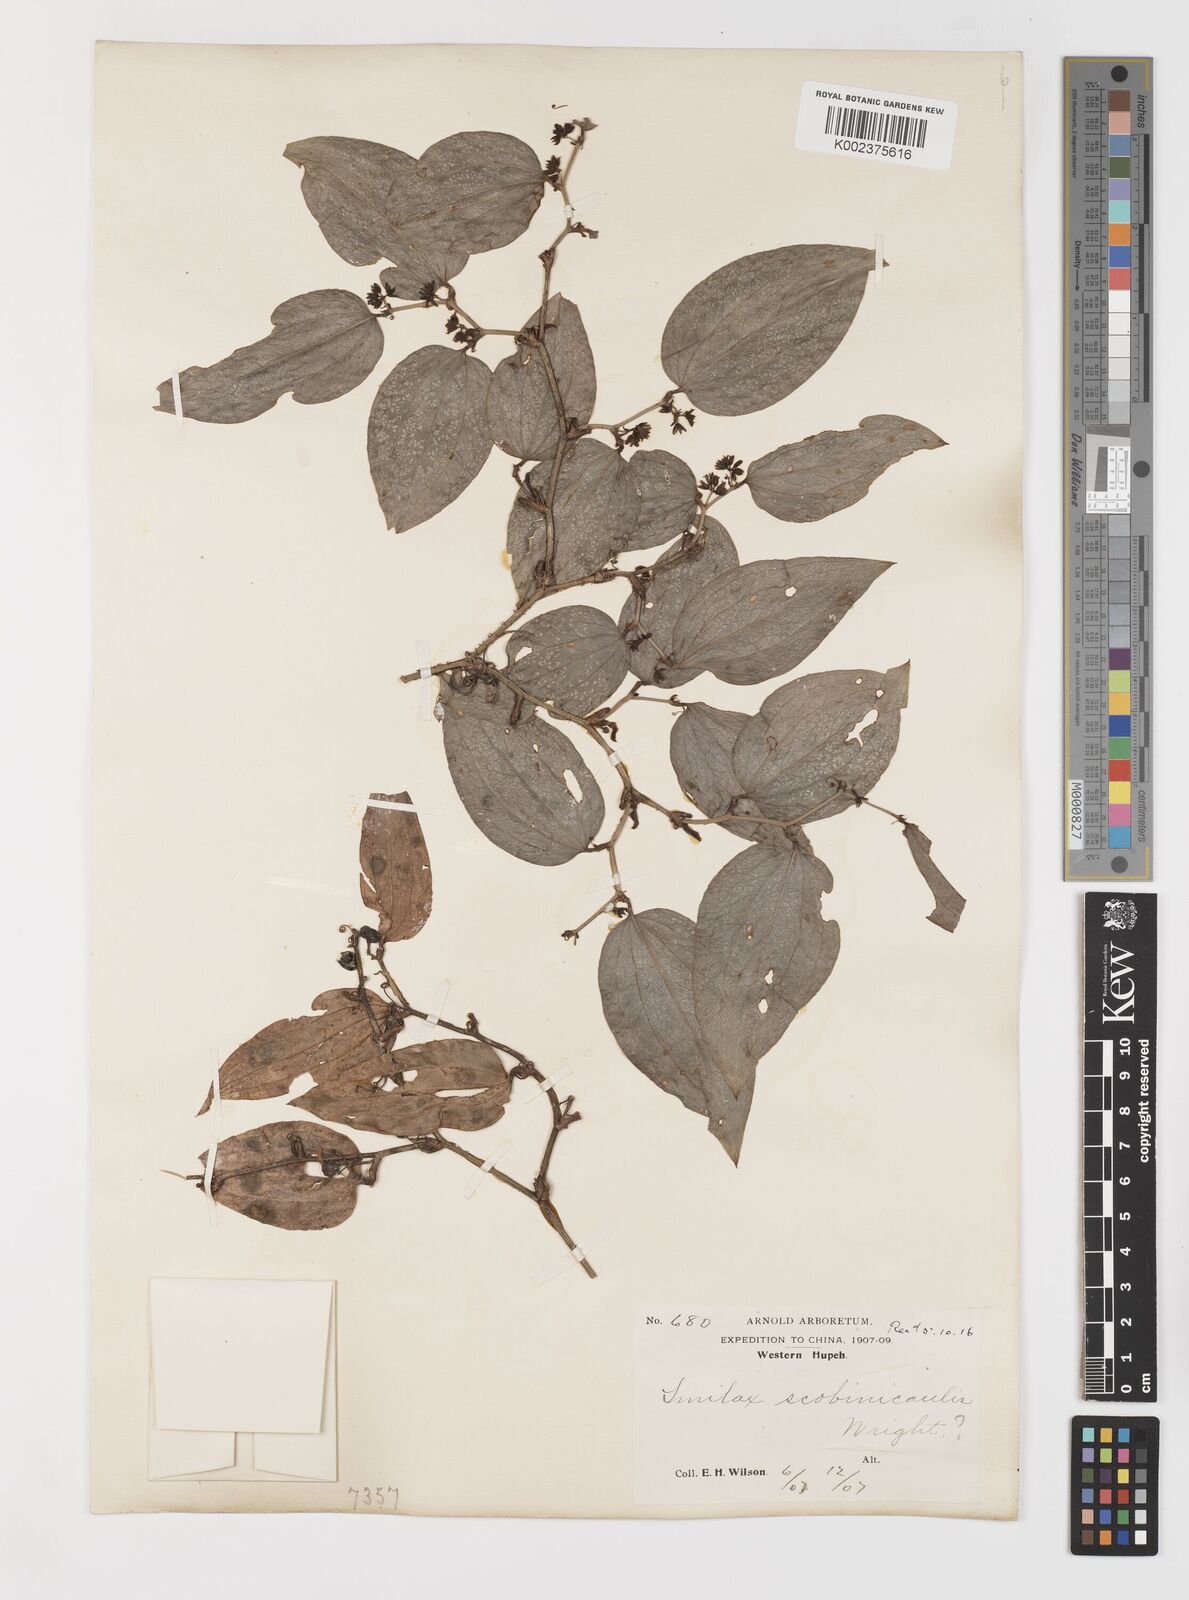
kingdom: Plantae
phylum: Tracheophyta
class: Liliopsida
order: Liliales
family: Smilacaceae
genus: Smilax
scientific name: Smilax scobinicaulis
